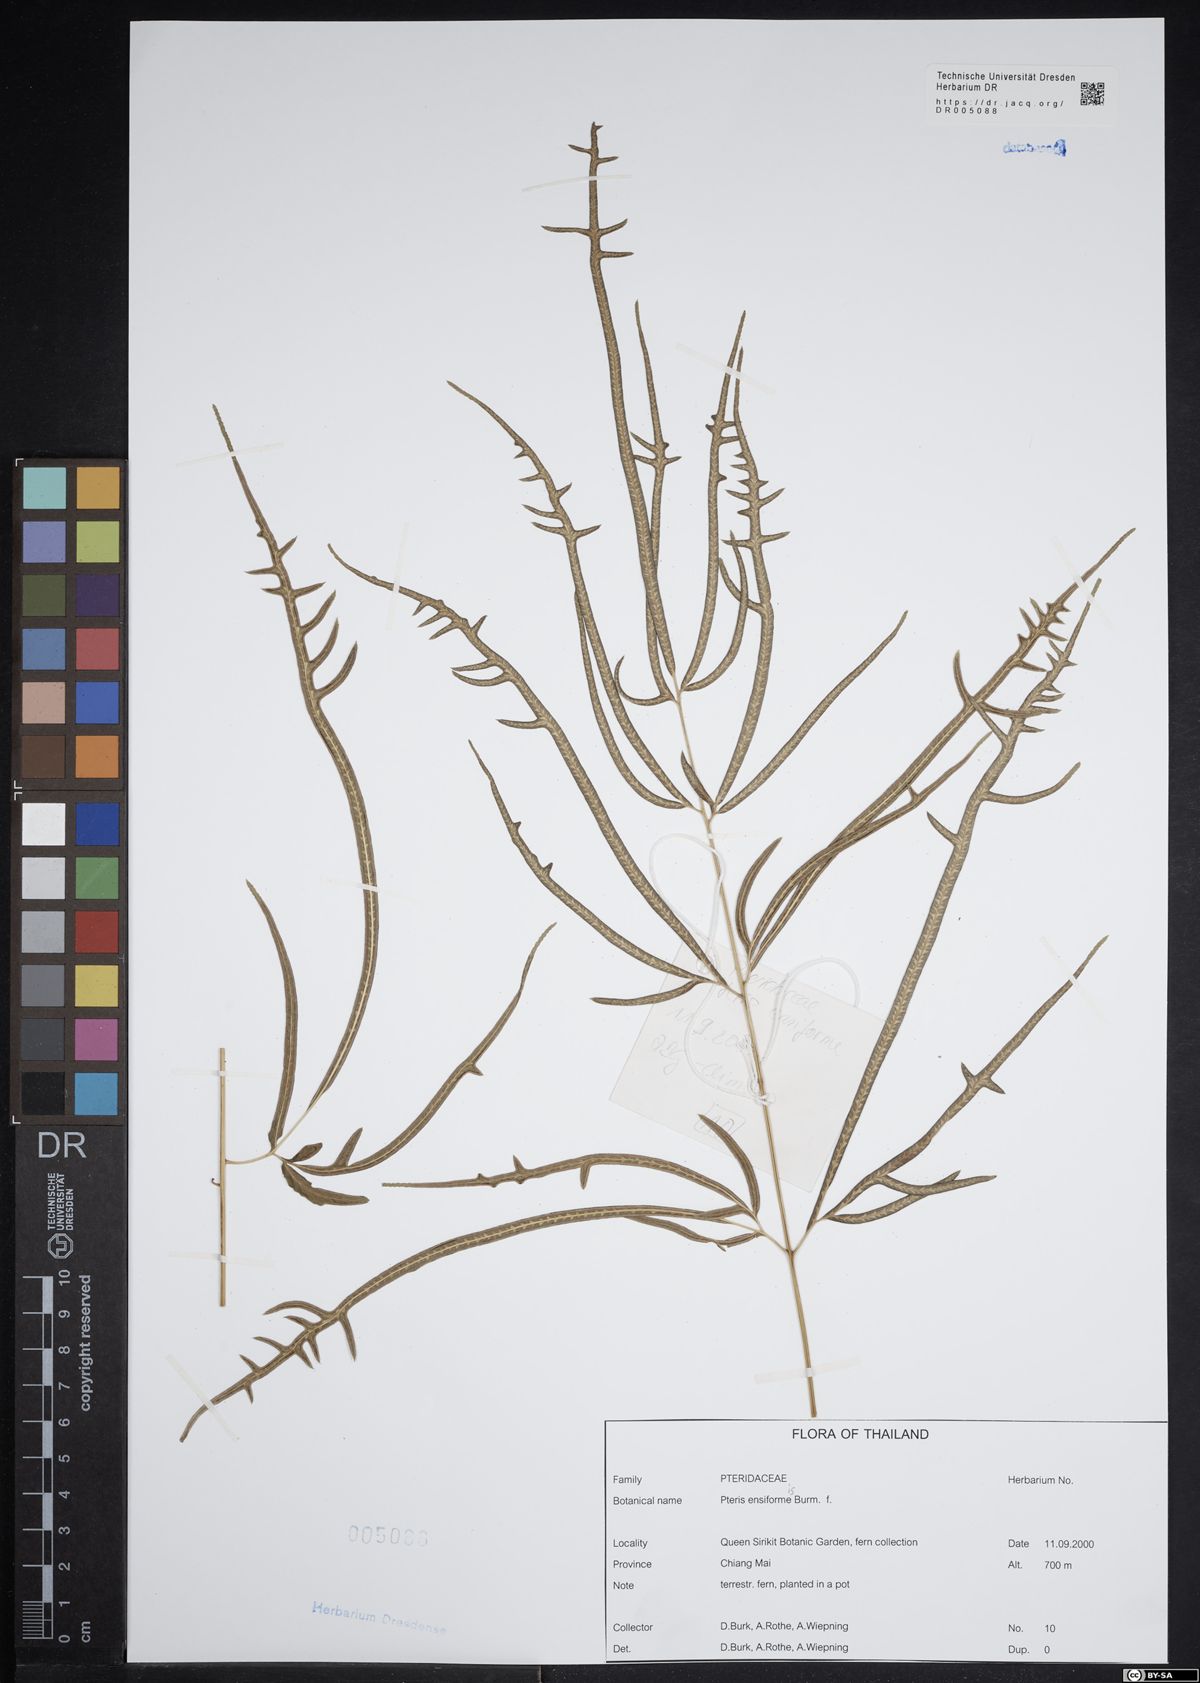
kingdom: Plantae
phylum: Tracheophyta
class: Polypodiopsida
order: Polypodiales
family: Pteridaceae
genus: Pteris
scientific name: Pteris ensiformis
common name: Sword brake
